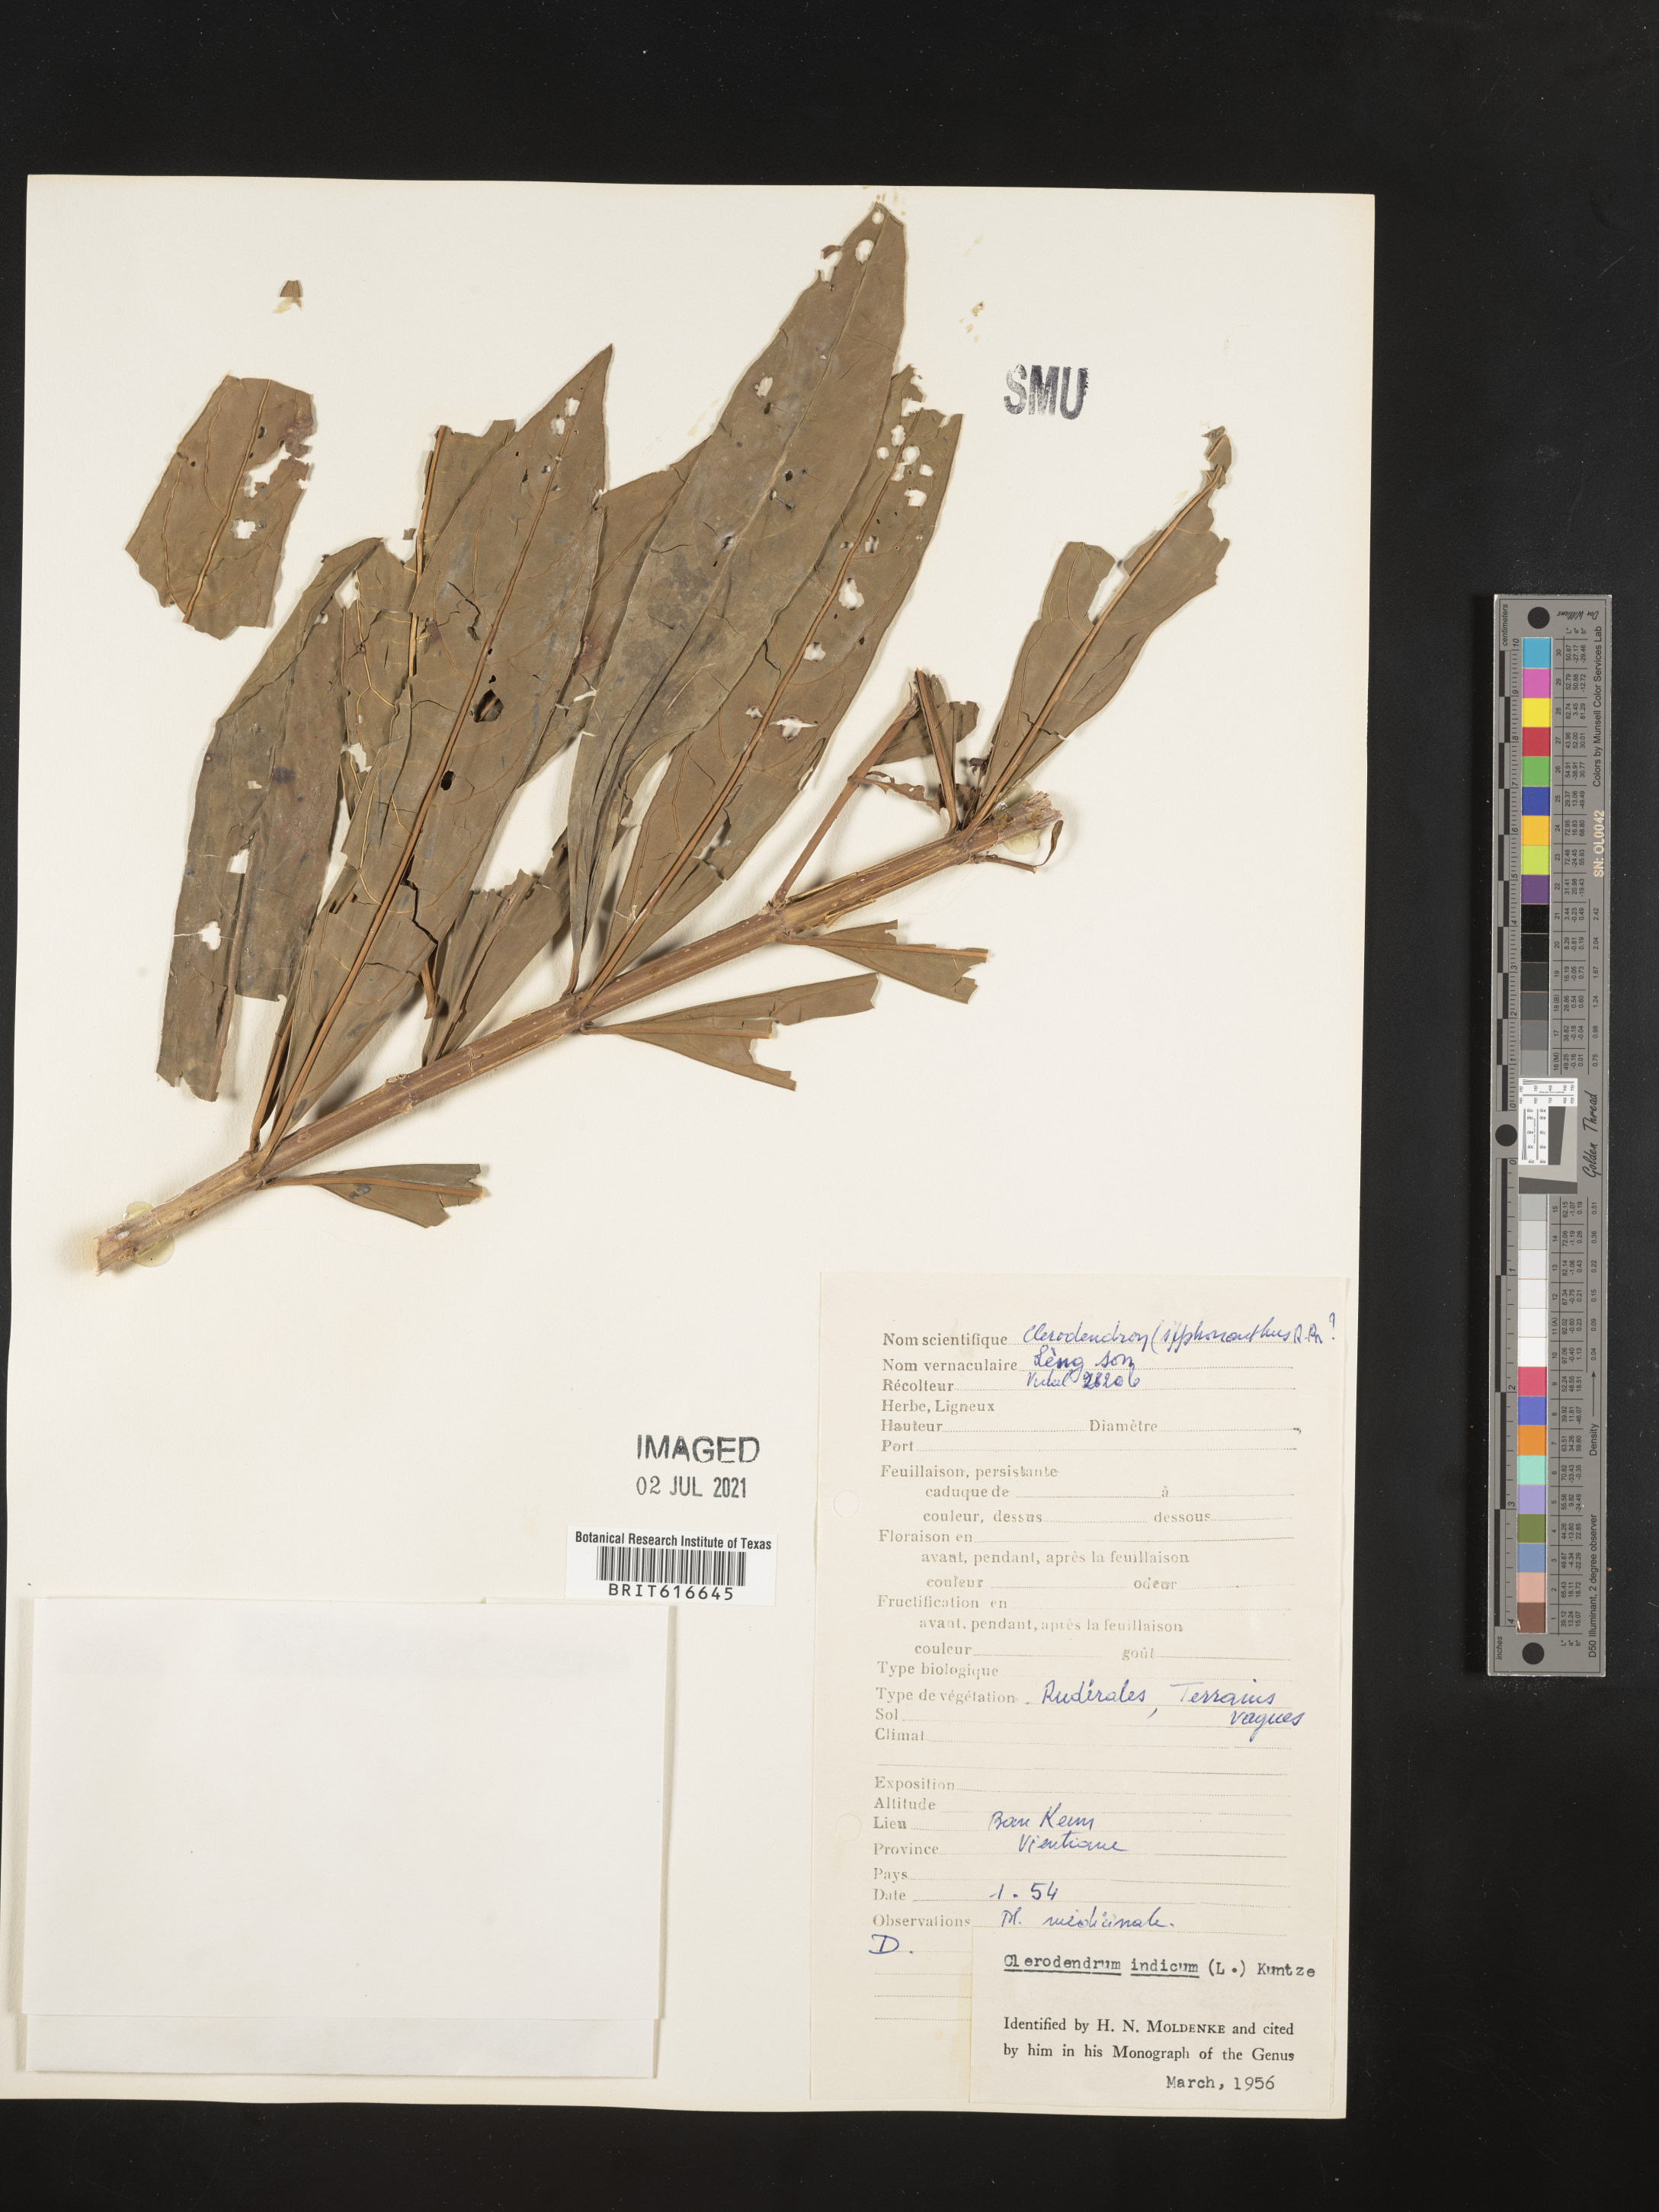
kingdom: Plantae
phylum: Tracheophyta
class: Magnoliopsida
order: Lamiales
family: Lamiaceae
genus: Clerodendrum
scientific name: Clerodendrum indicum
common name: Turk's turbin
